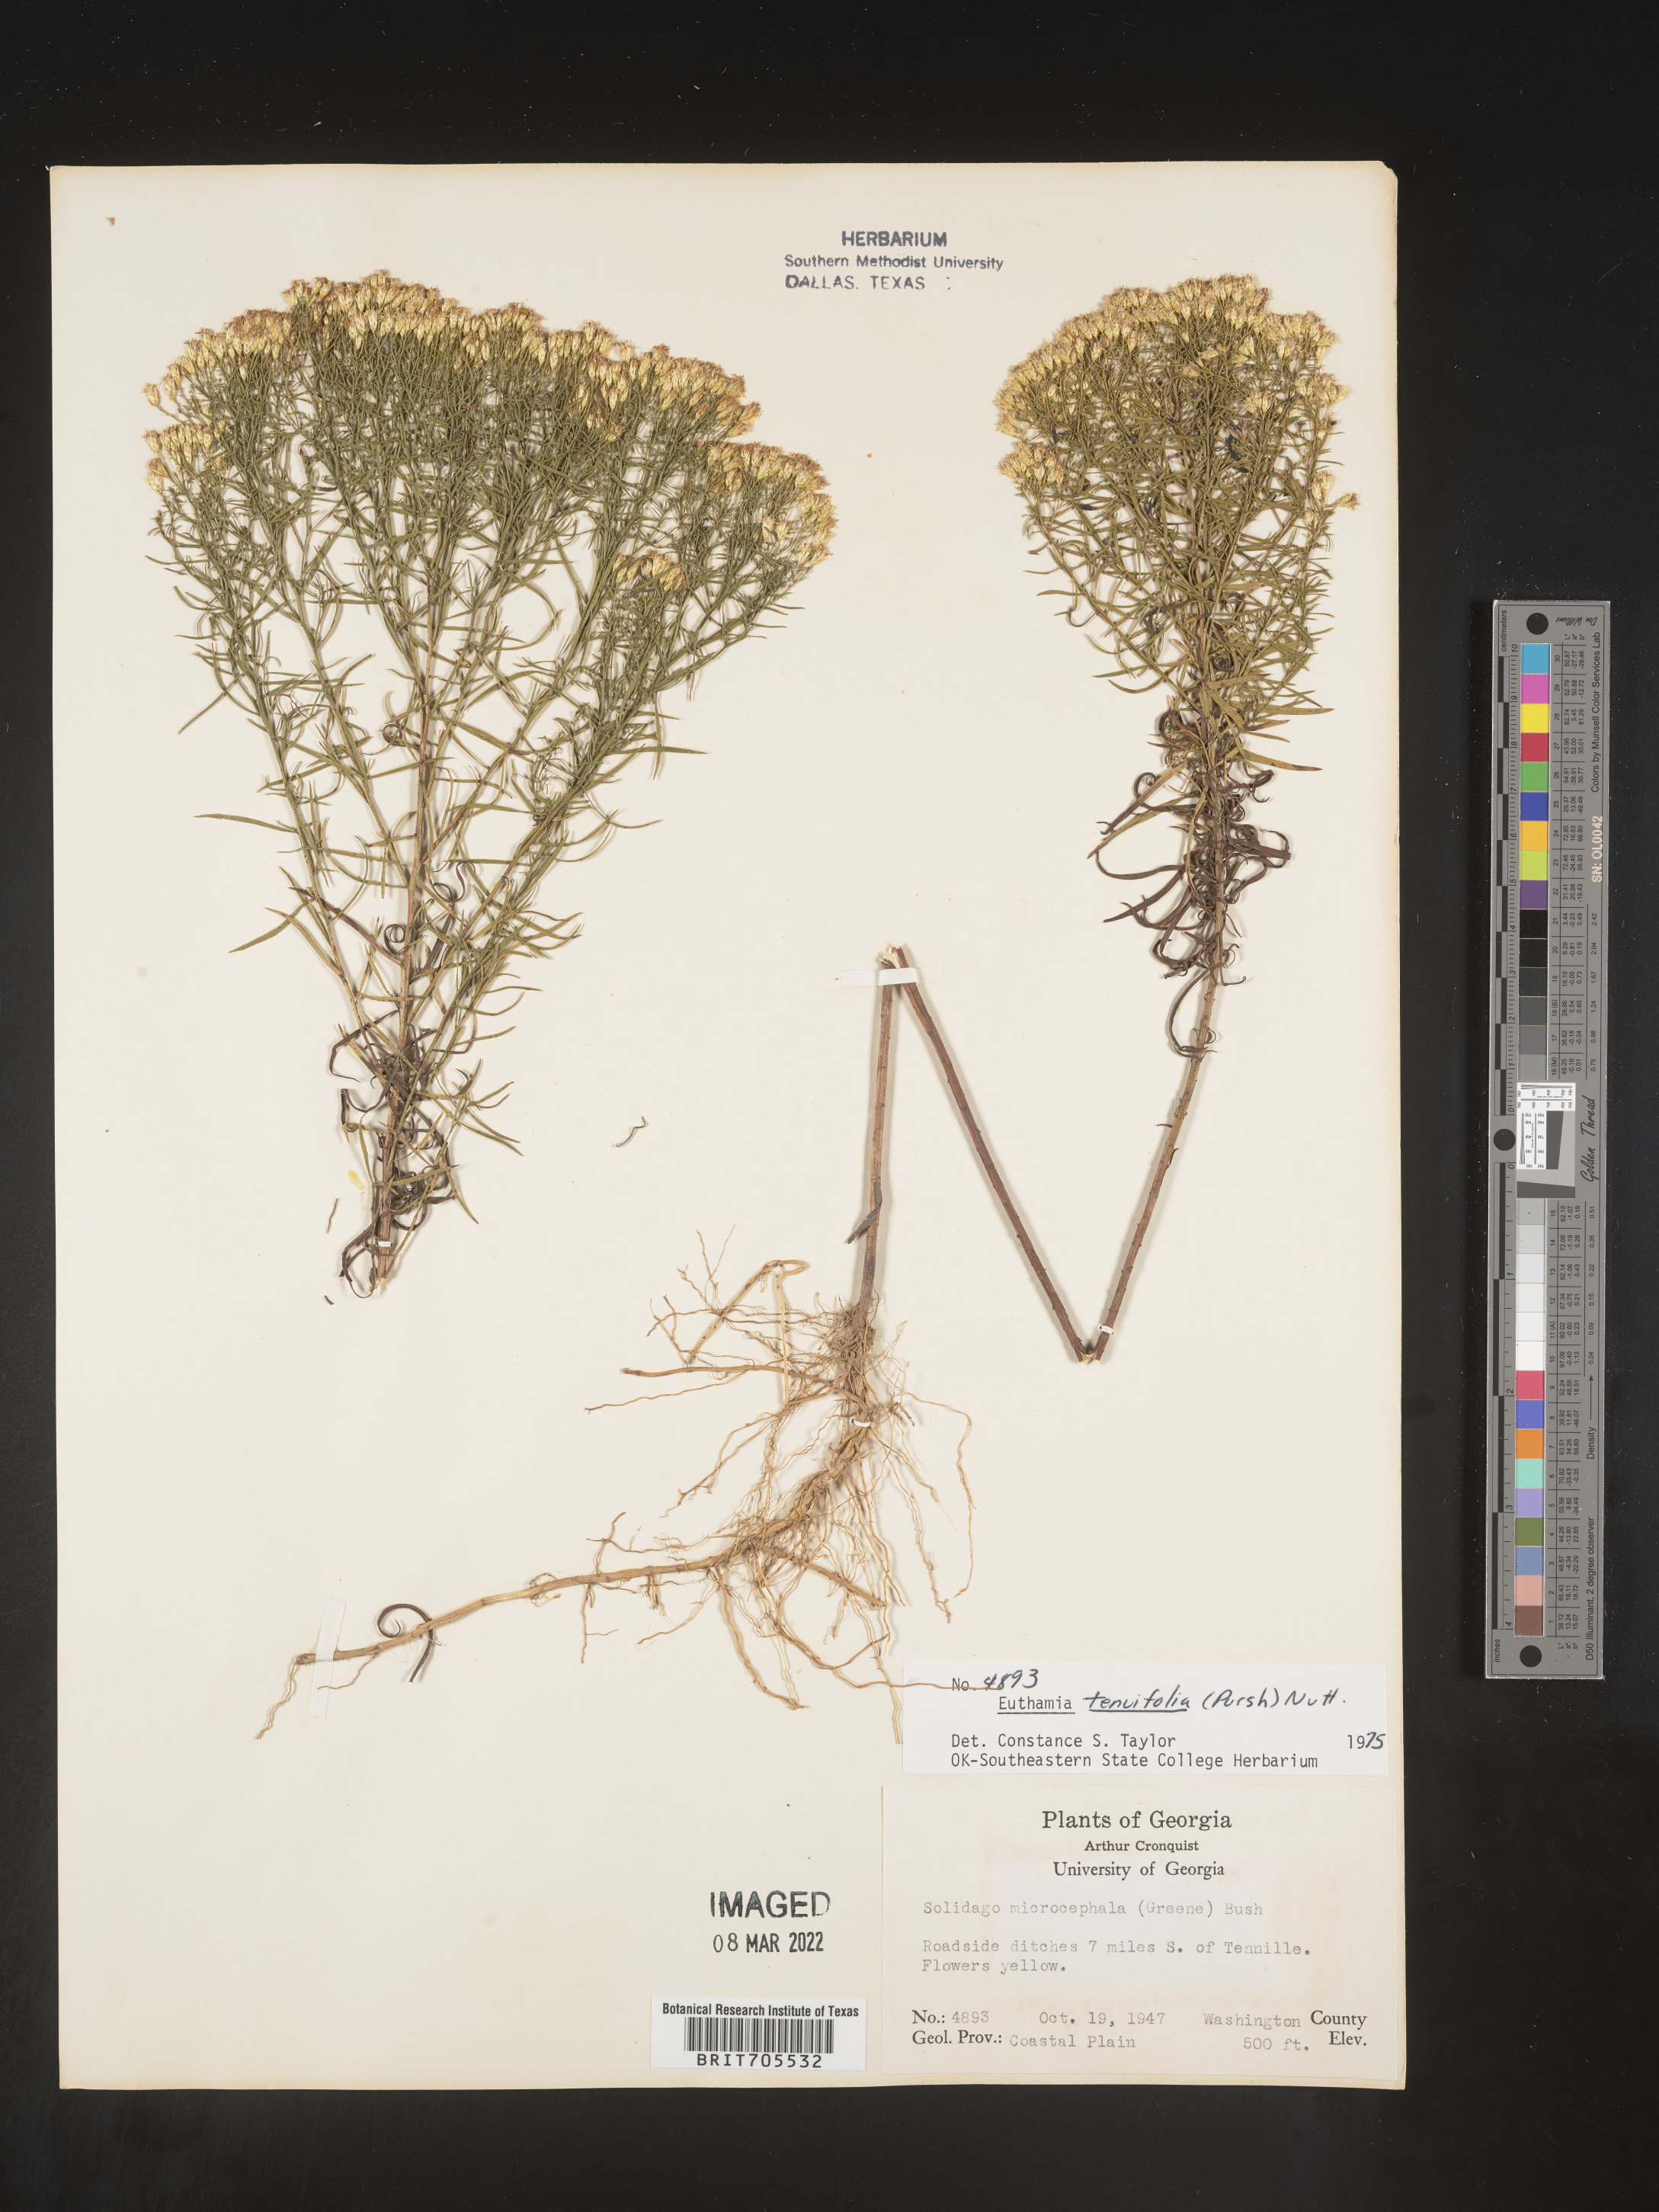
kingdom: Plantae
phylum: Tracheophyta
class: Magnoliopsida
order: Asterales
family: Asteraceae
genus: Euthamia
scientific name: Euthamia caroliniana
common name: Coastal plain goldentop
